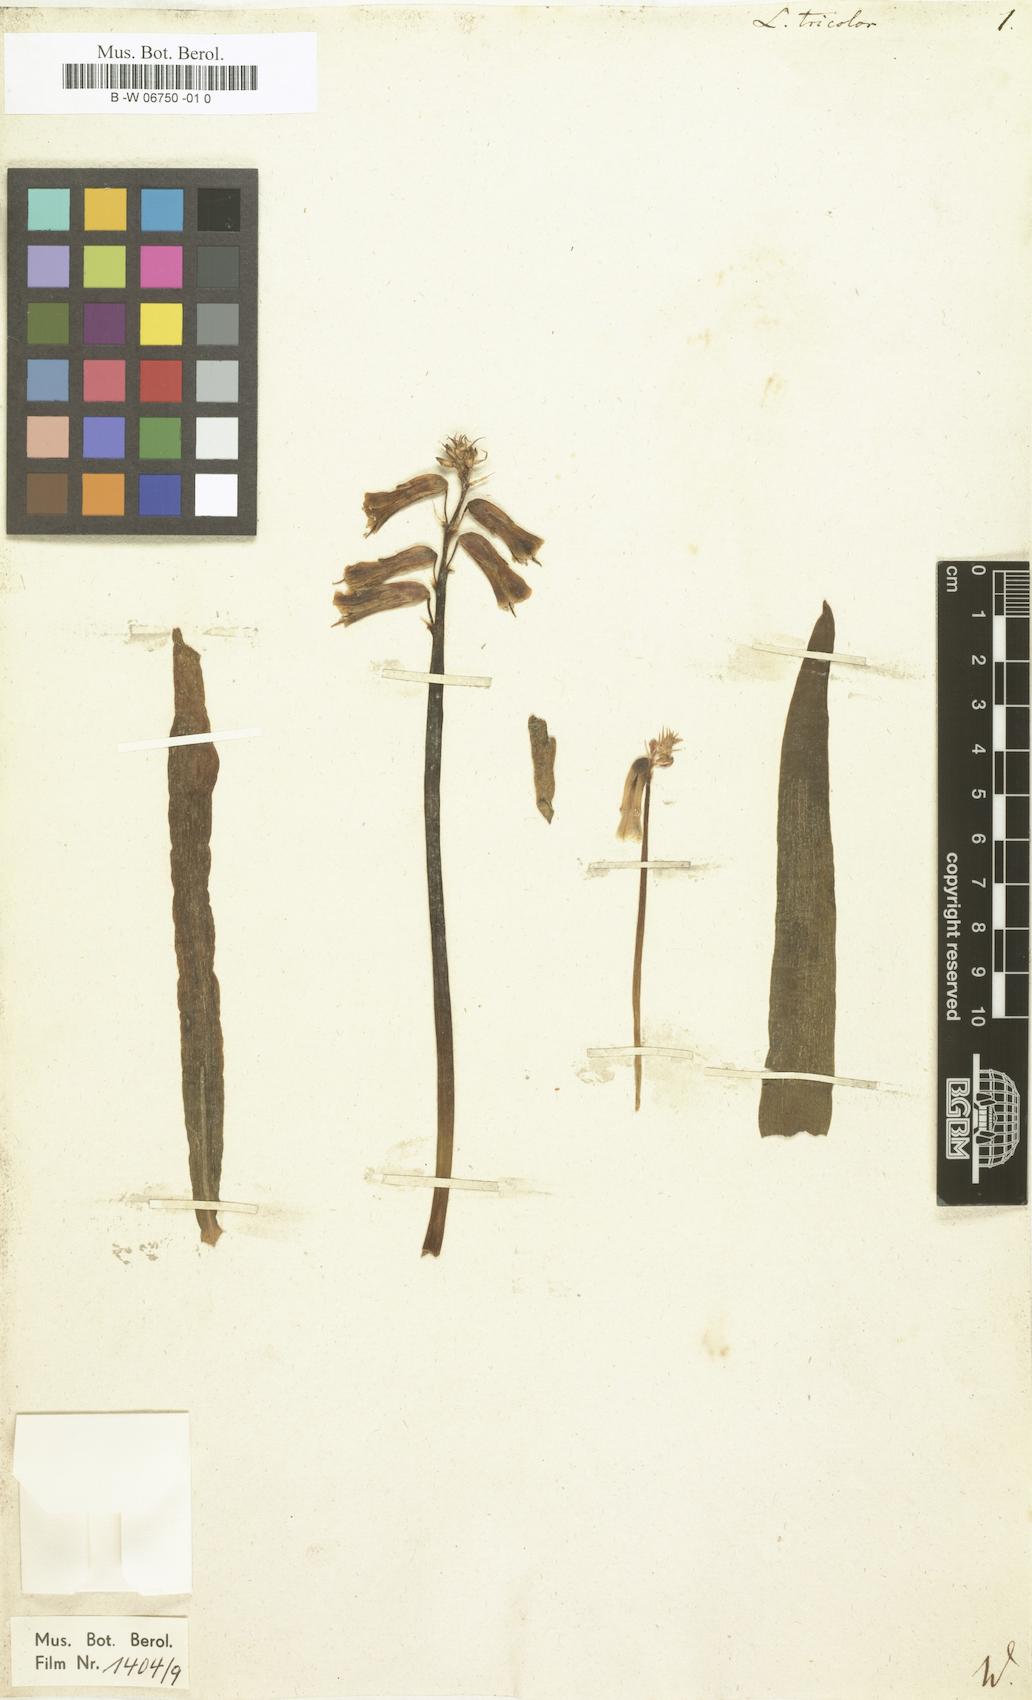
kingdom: Plantae
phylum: Tracheophyta
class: Liliopsida
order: Asparagales
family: Asparagaceae
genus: Lachenalia
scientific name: Lachenalia aloides
